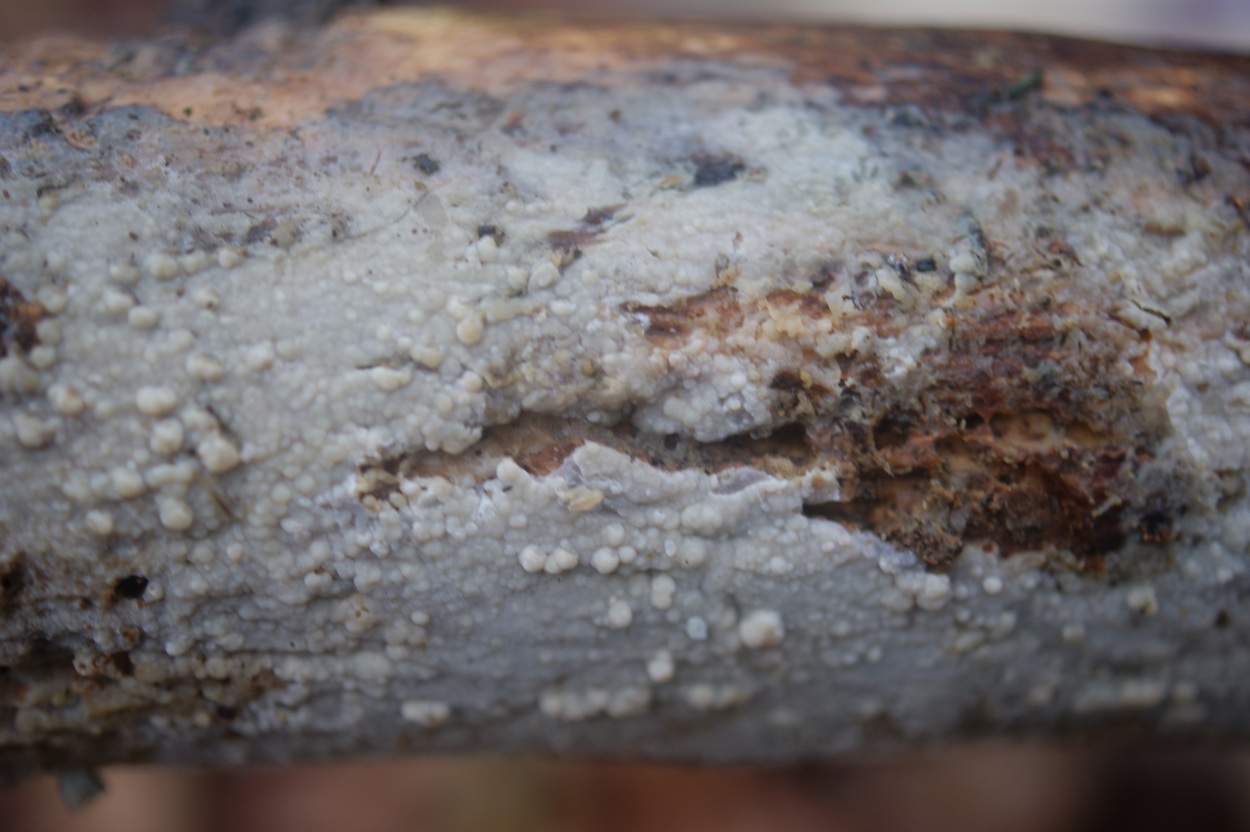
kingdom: Fungi
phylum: Basidiomycota
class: Agaricomycetes
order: Agaricales
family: Radulomycetaceae
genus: Radulomyces
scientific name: Radulomyces confluens
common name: glat naftalinskind
